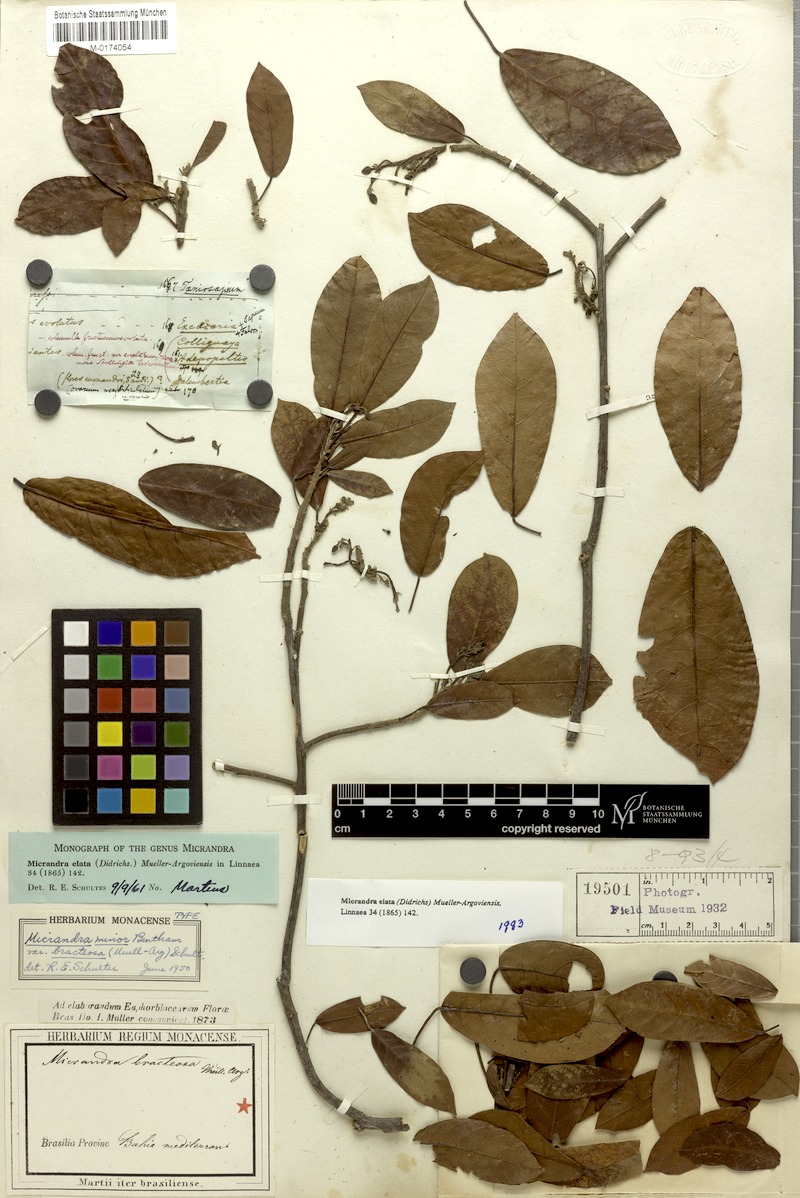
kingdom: Plantae
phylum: Tracheophyta
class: Magnoliopsida
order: Malpighiales
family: Euphorbiaceae
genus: Micrandra
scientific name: Micrandra elata
